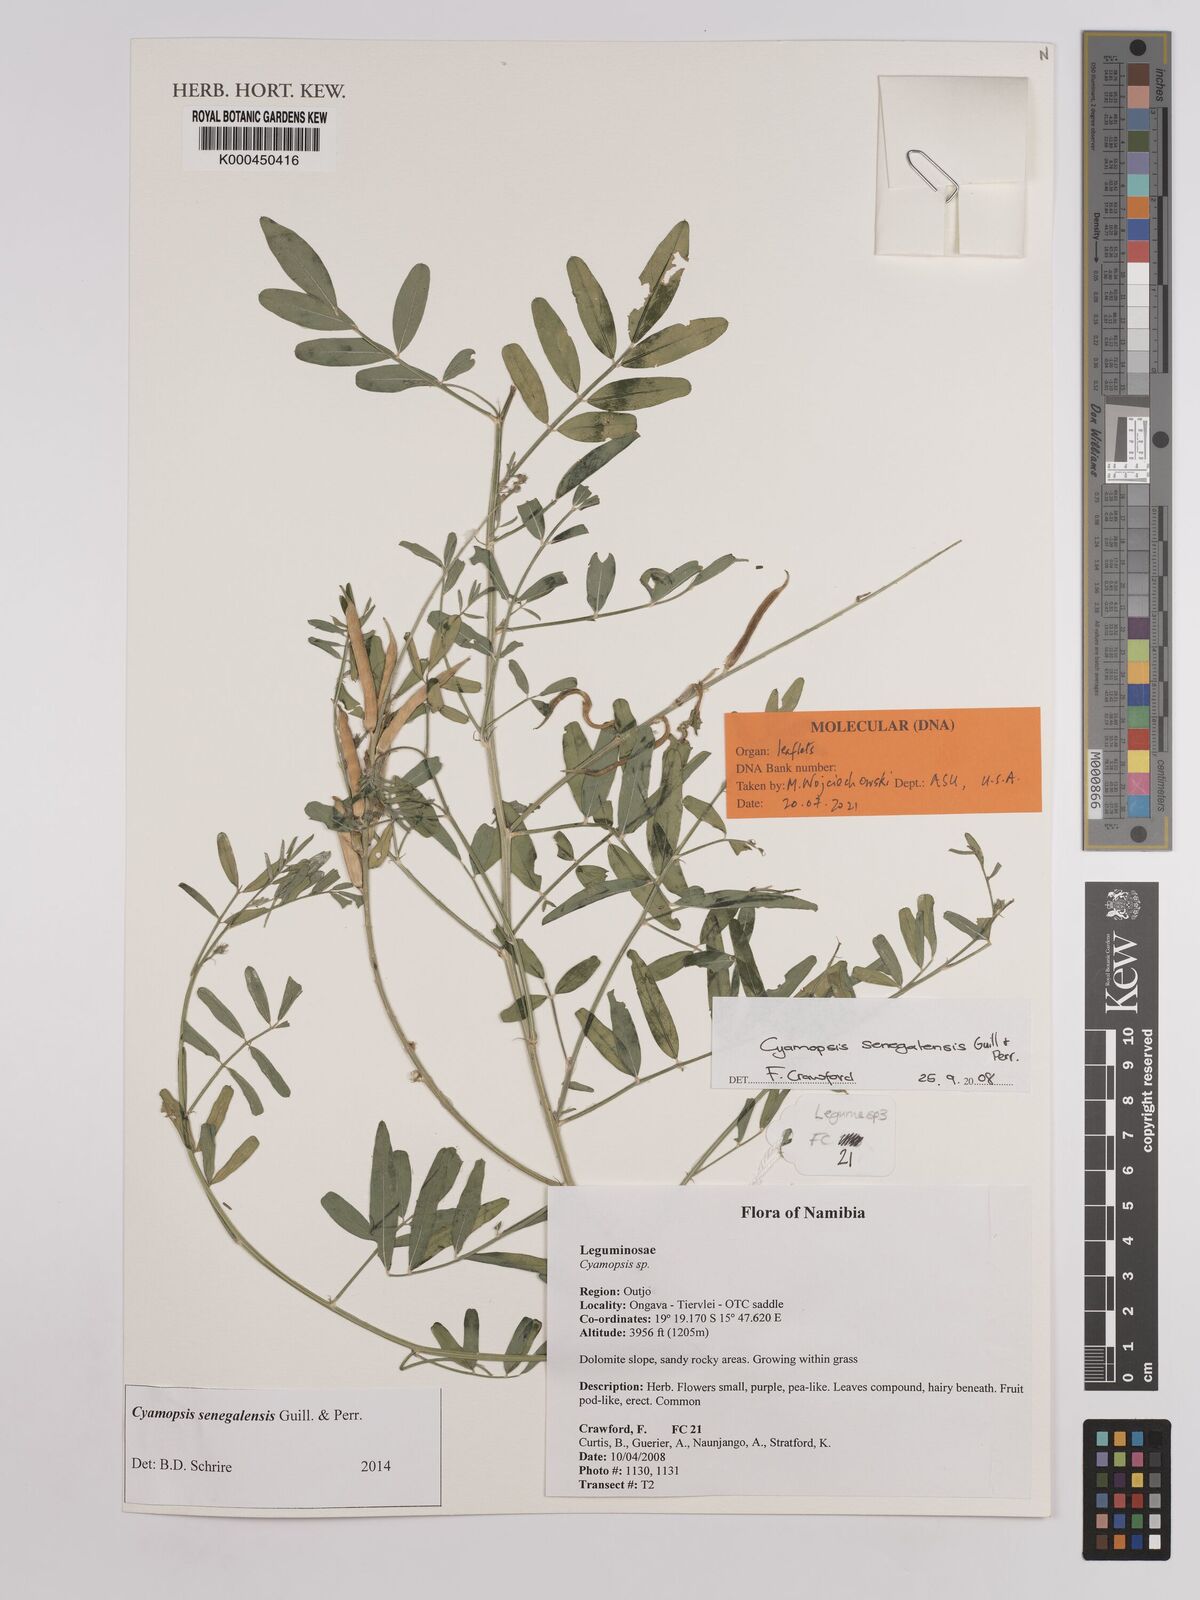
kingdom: Plantae
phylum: Tracheophyta
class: Magnoliopsida
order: Fabales
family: Fabaceae
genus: Cyamopsis
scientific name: Cyamopsis senegalensis
